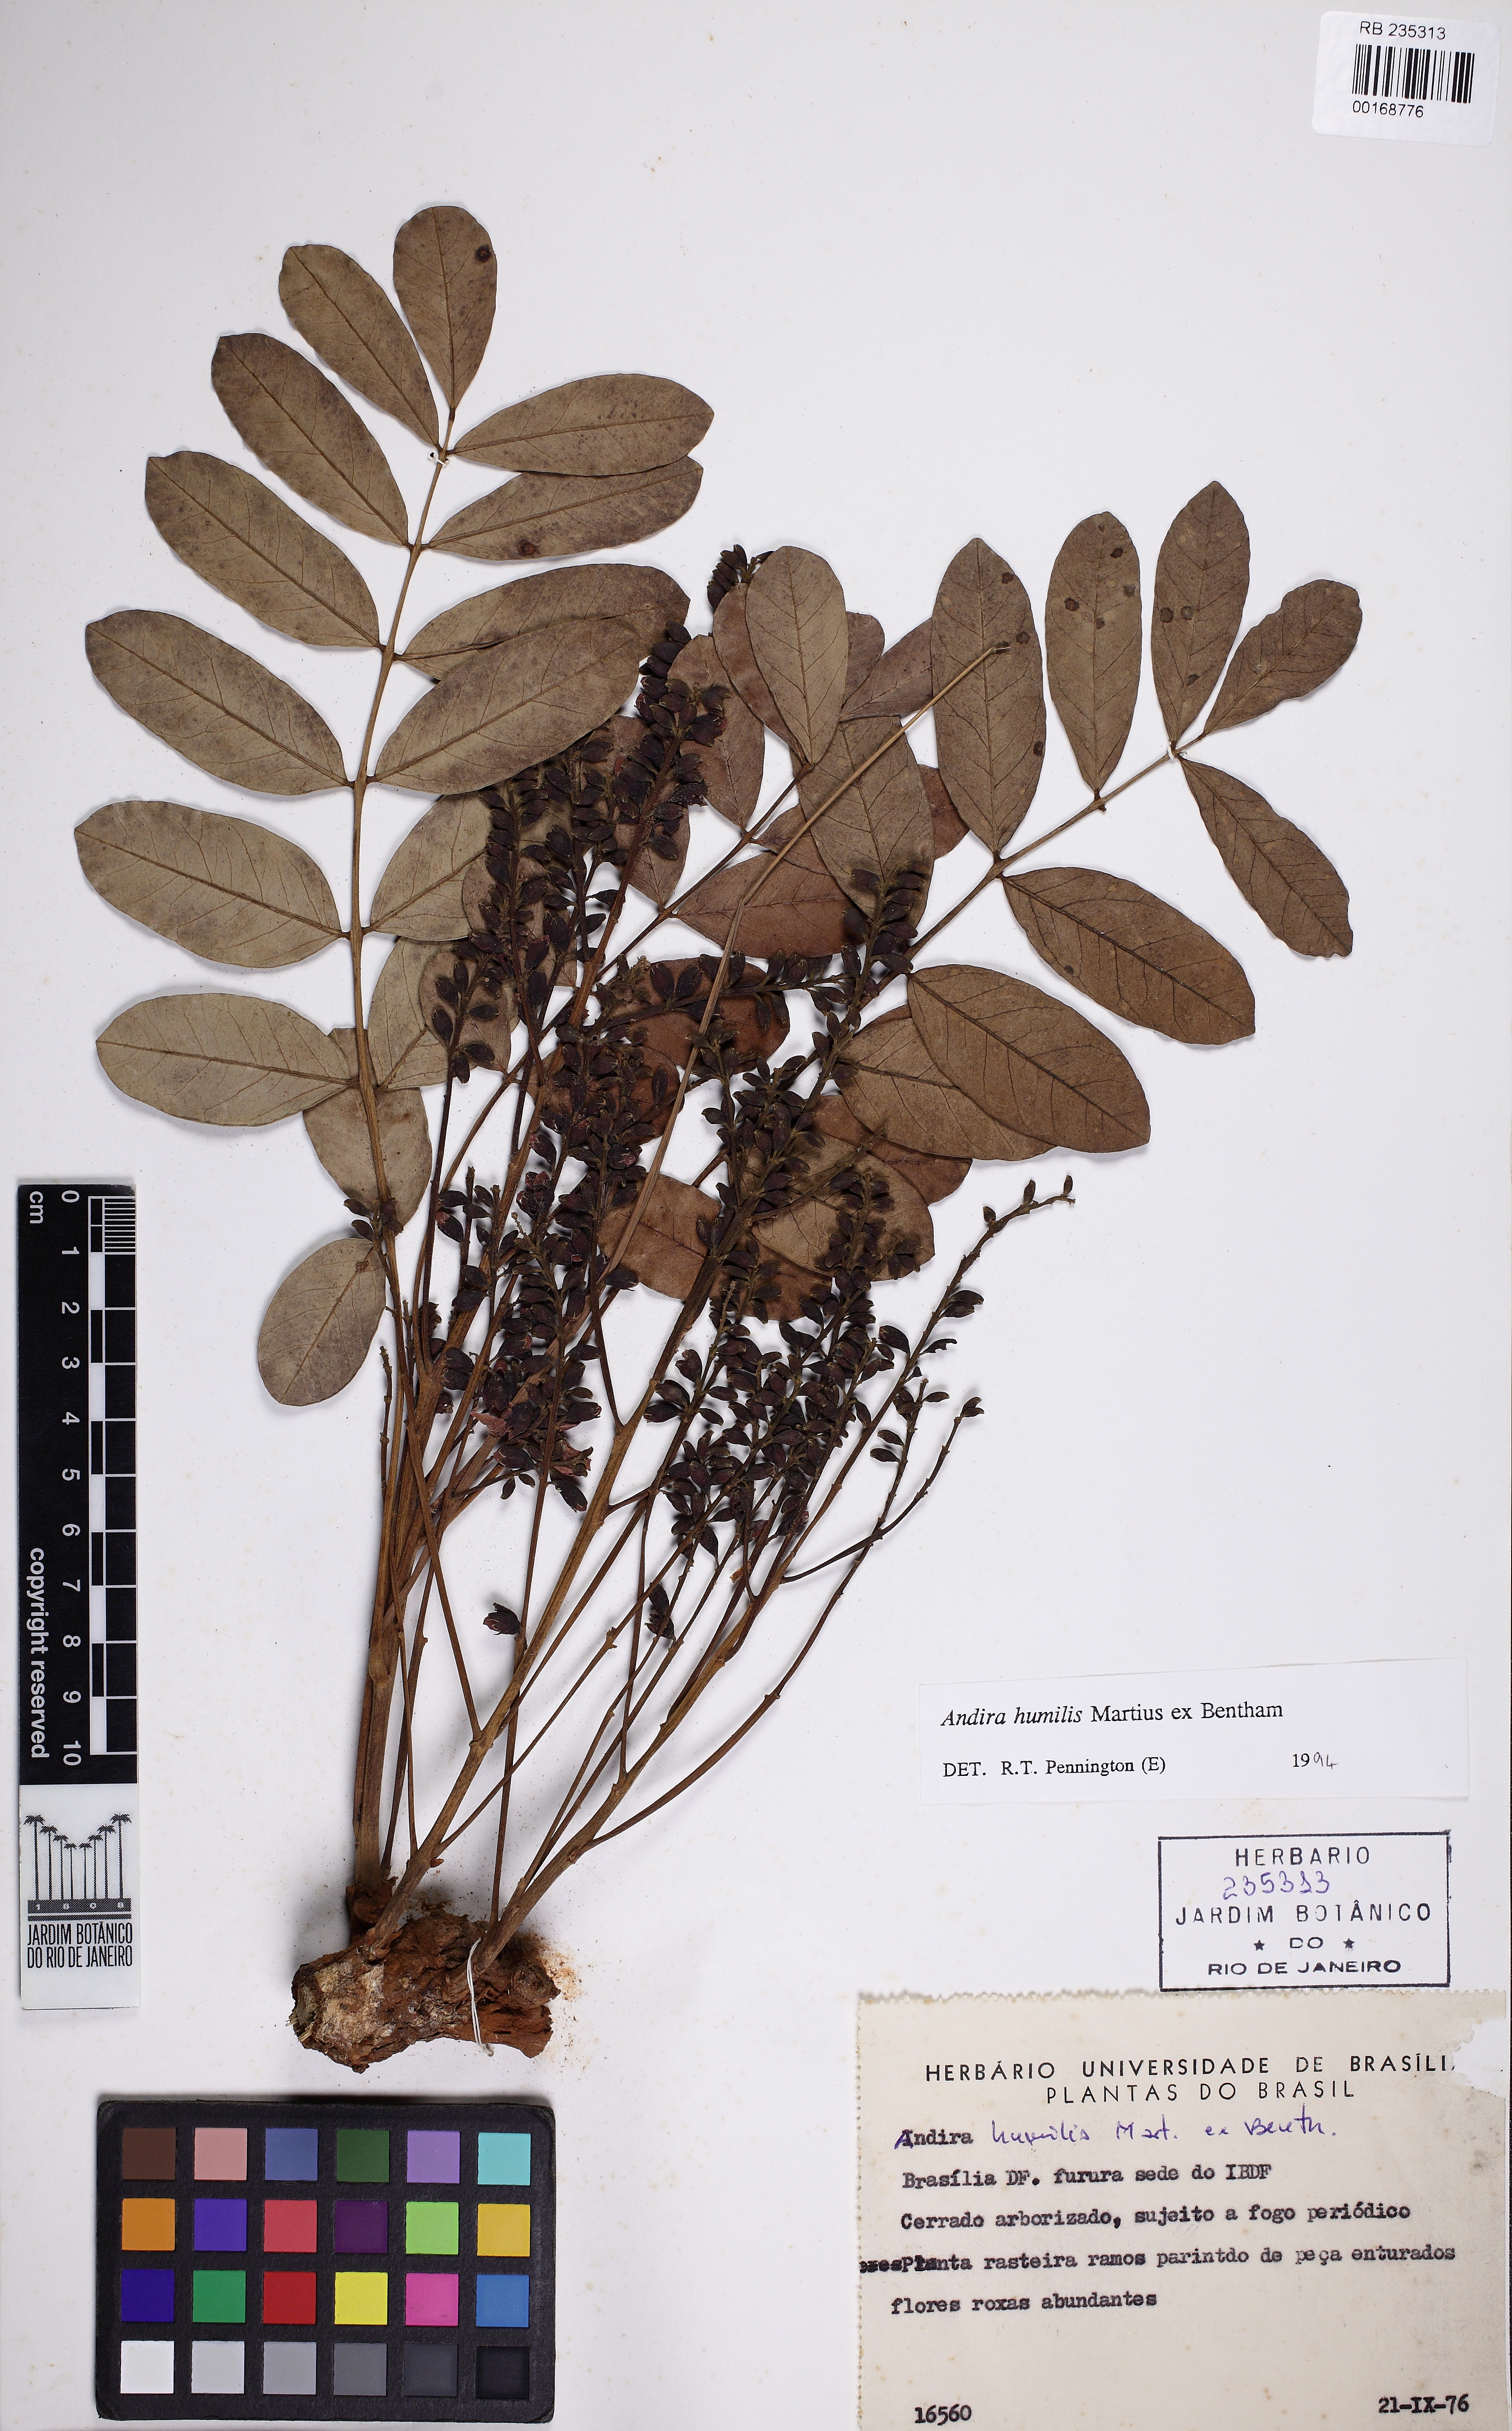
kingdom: Plantae
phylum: Tracheophyta
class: Magnoliopsida
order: Fabales
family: Fabaceae
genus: Andira
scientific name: Andira humilis
